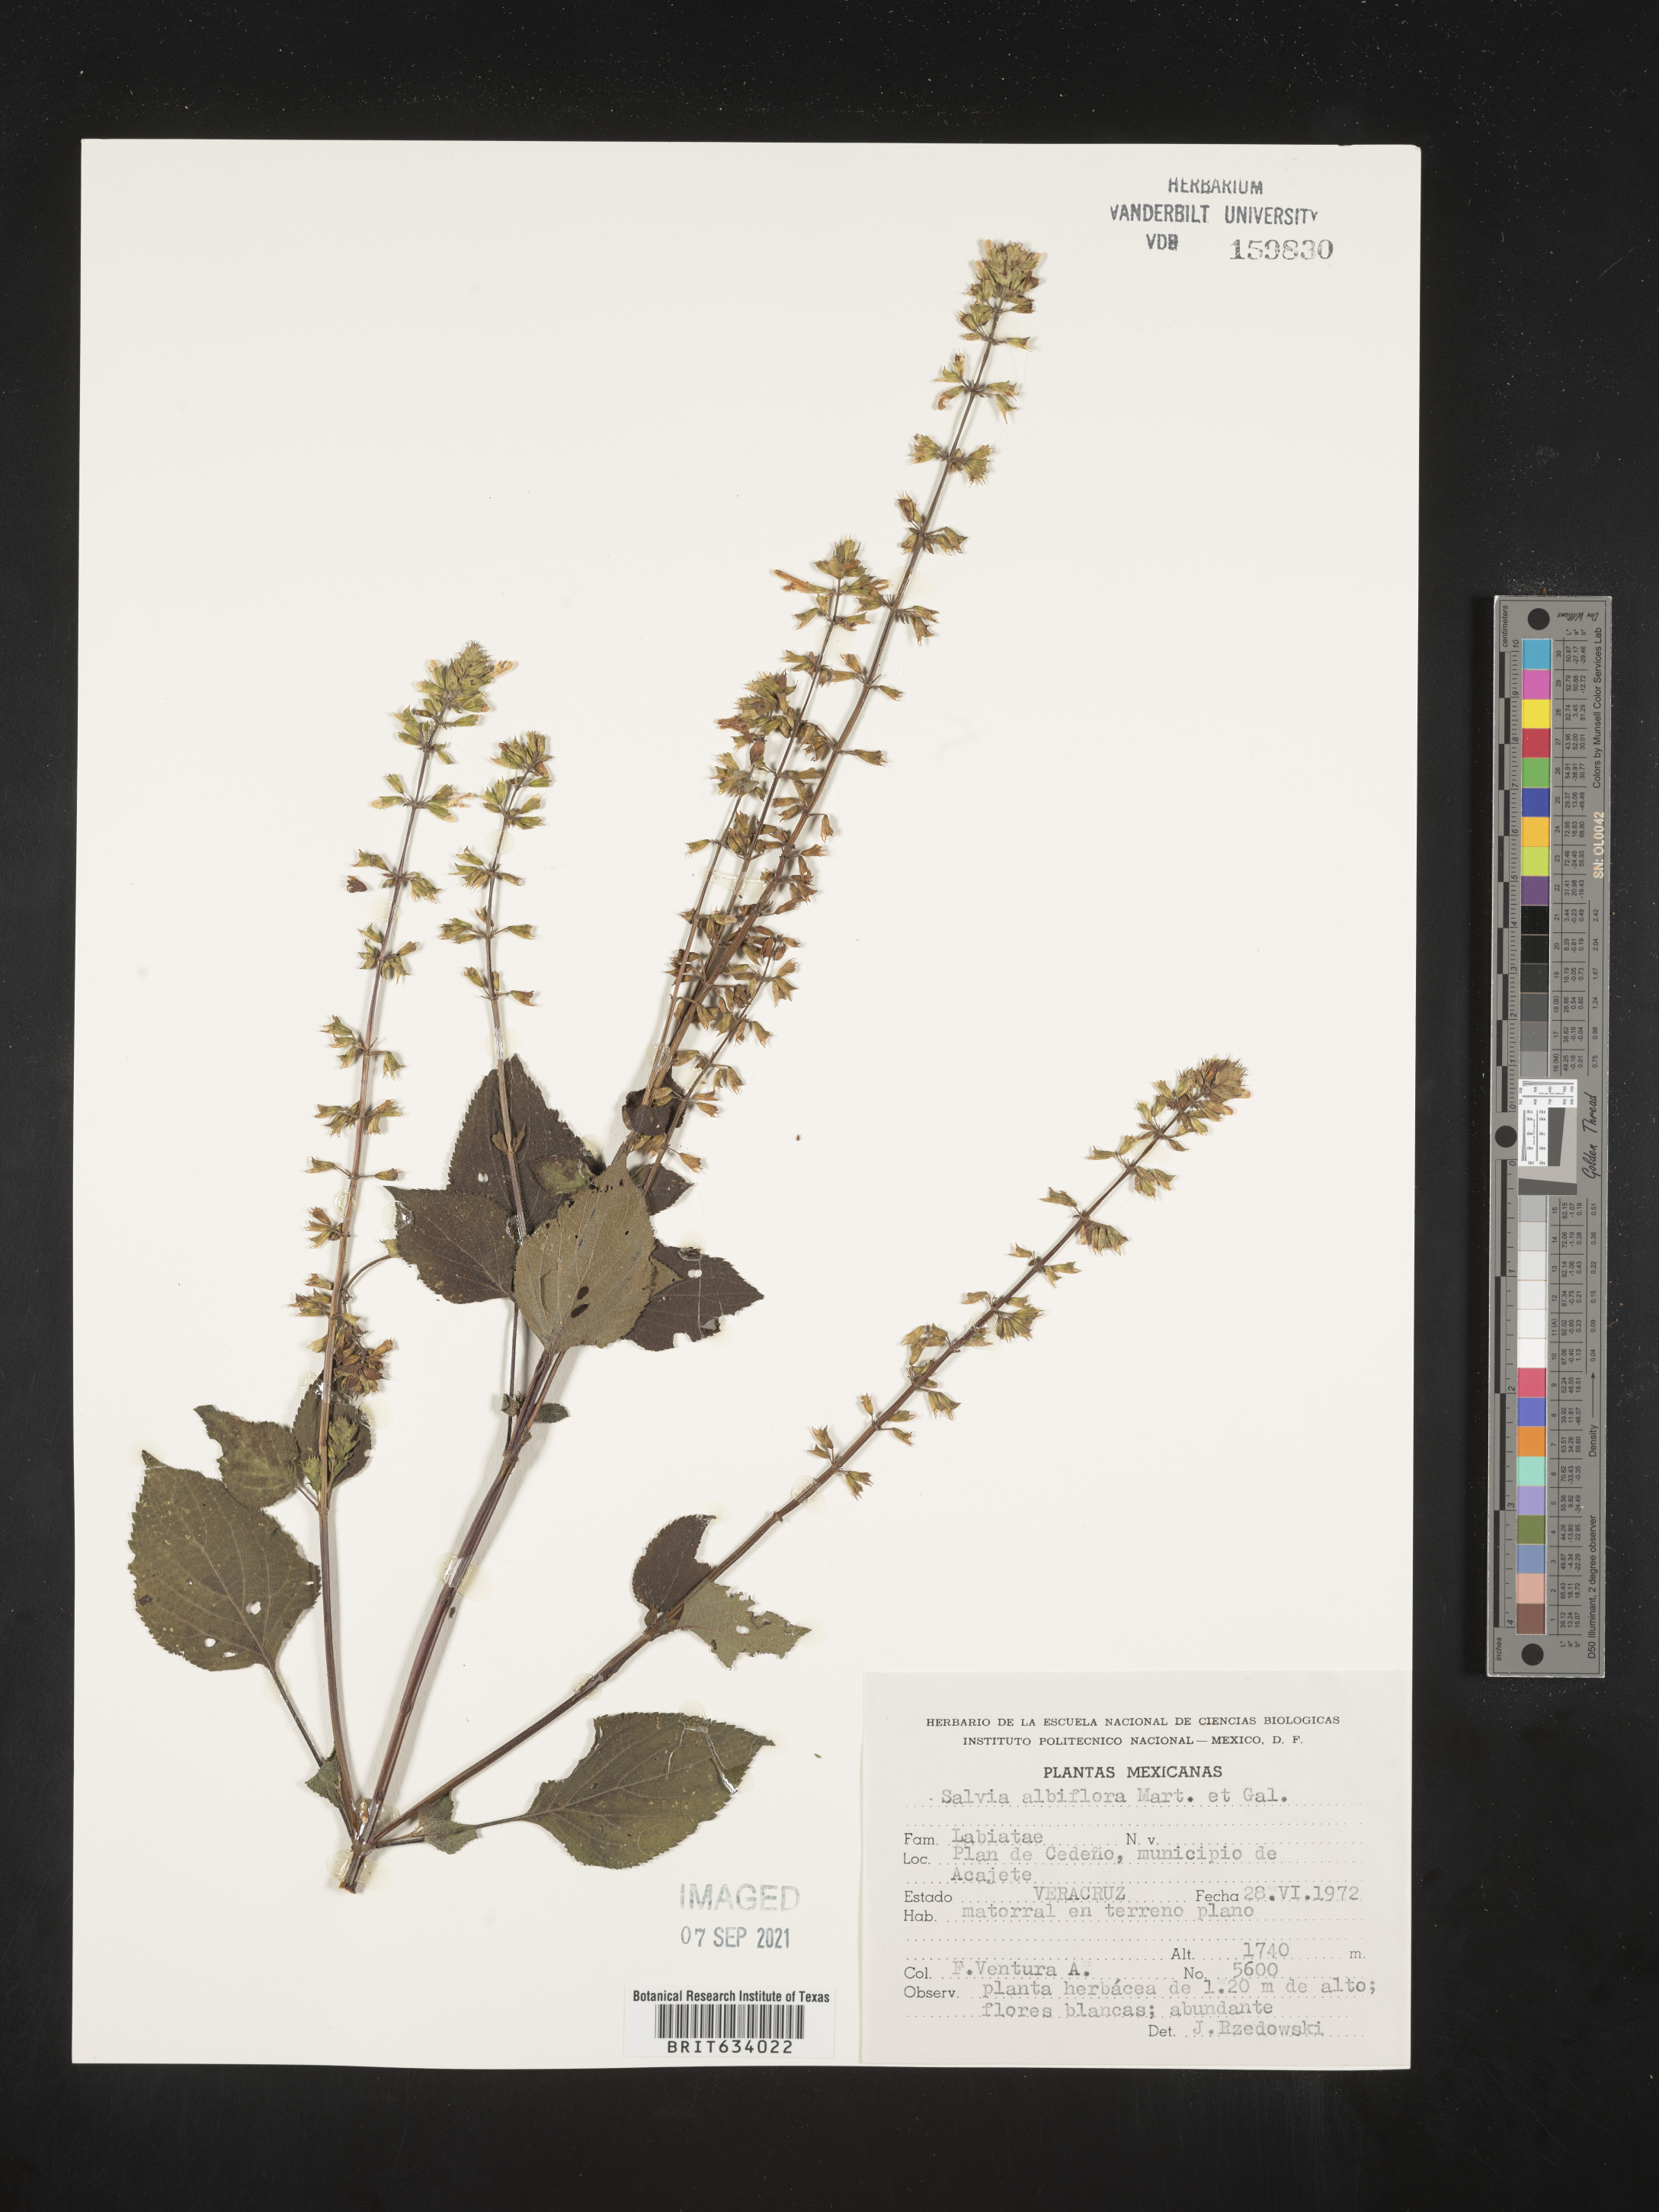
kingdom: Plantae
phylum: Tracheophyta
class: Magnoliopsida
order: Lamiales
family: Lamiaceae
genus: Salvia
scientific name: Salvia
